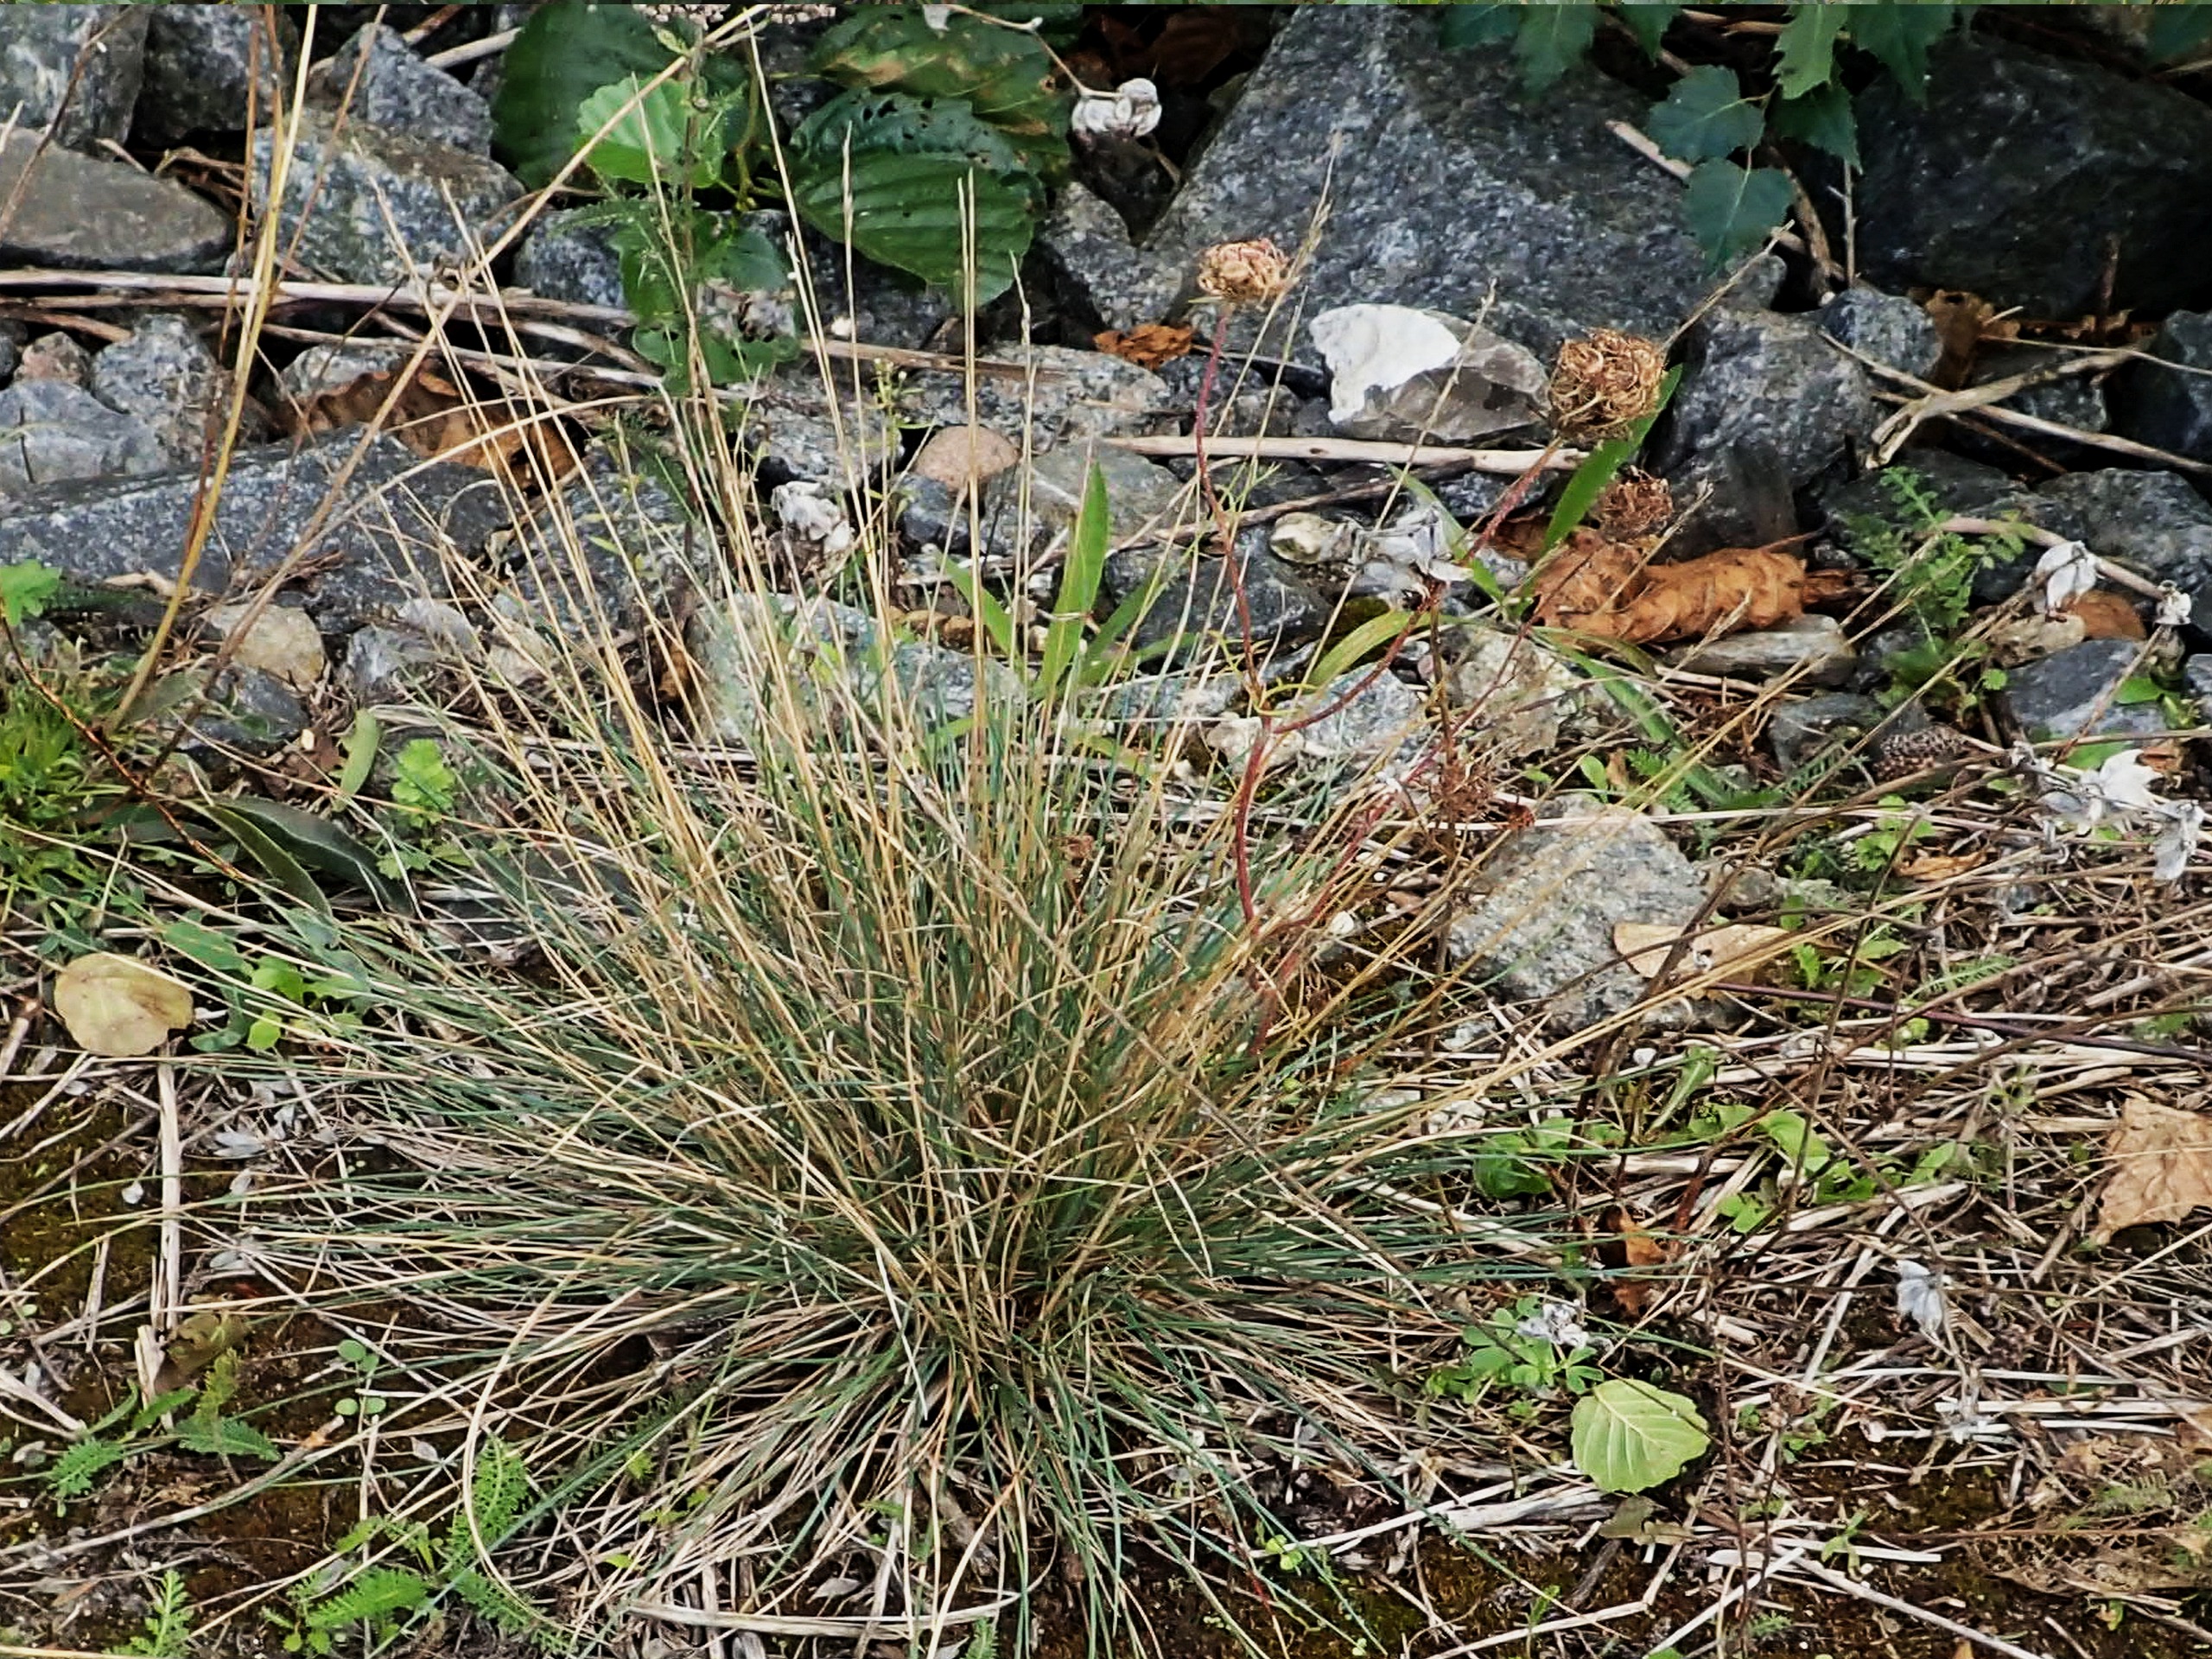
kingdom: Plantae
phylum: Tracheophyta
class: Liliopsida
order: Poales
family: Poaceae
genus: Festuca
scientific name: Festuca trachyphylla
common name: Bakke-svingel
